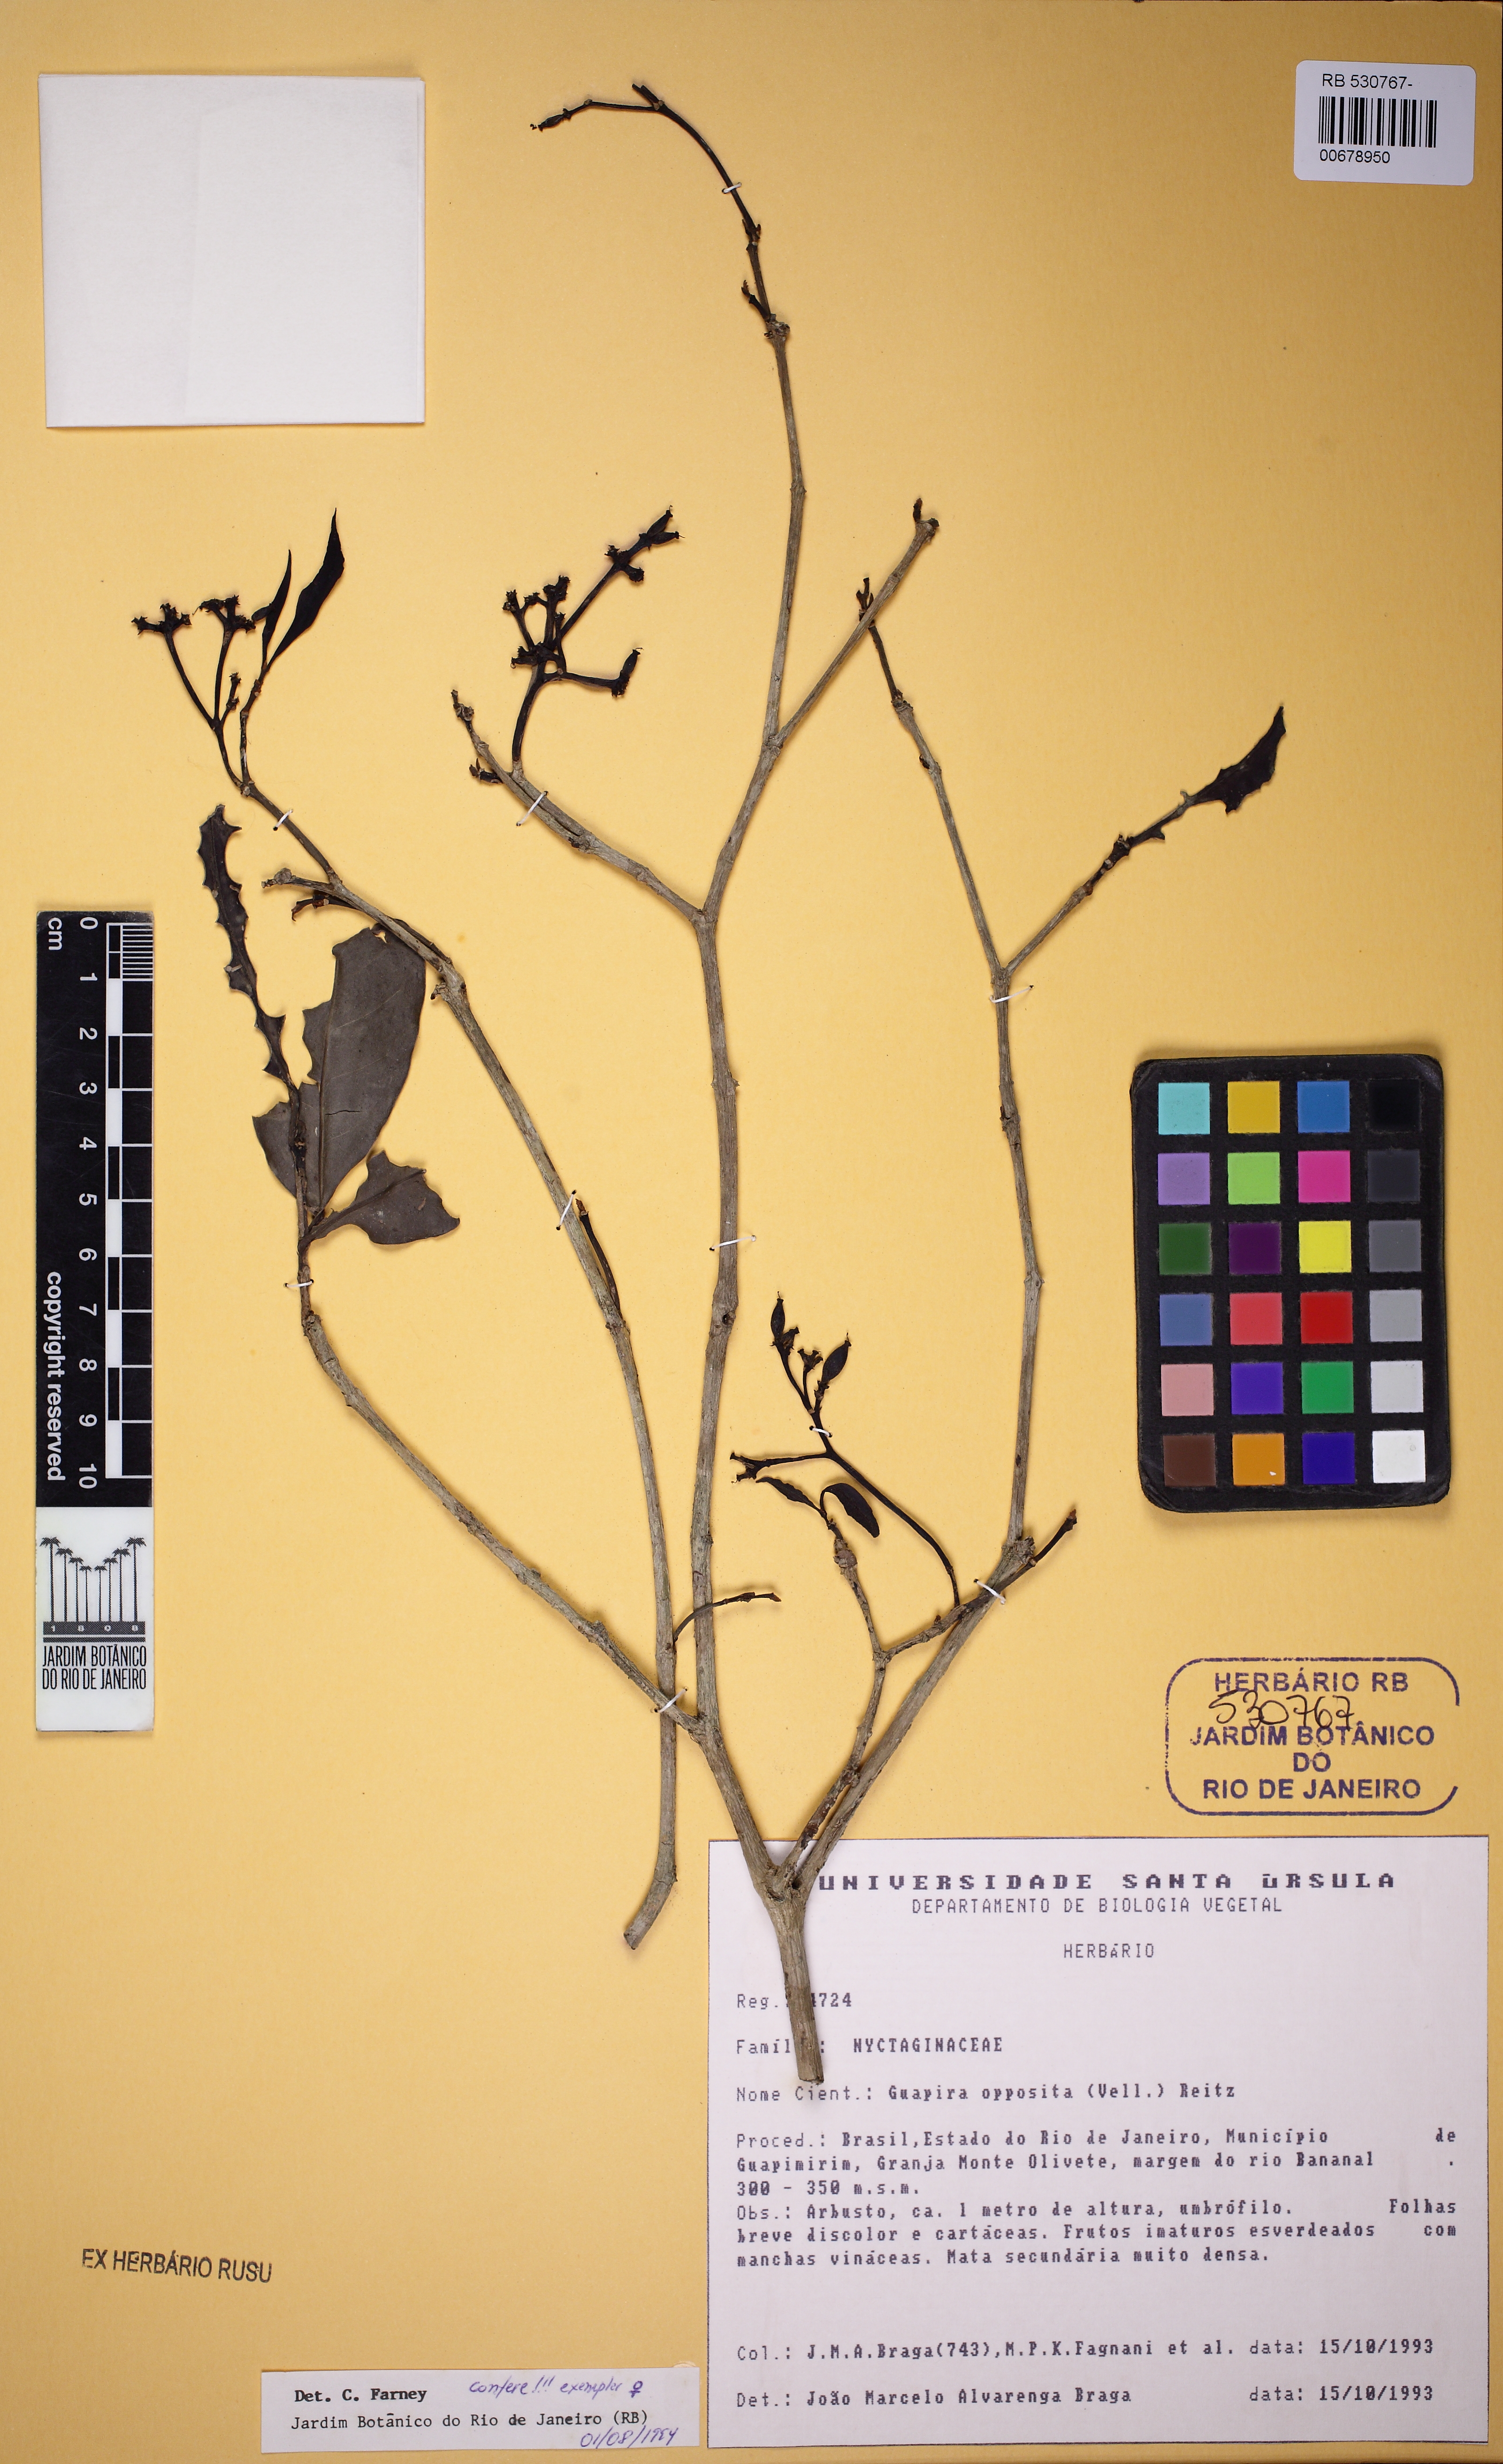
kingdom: Plantae
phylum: Tracheophyta
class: Magnoliopsida
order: Caryophyllales
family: Nyctaginaceae
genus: Guapira
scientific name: Guapira opposita
